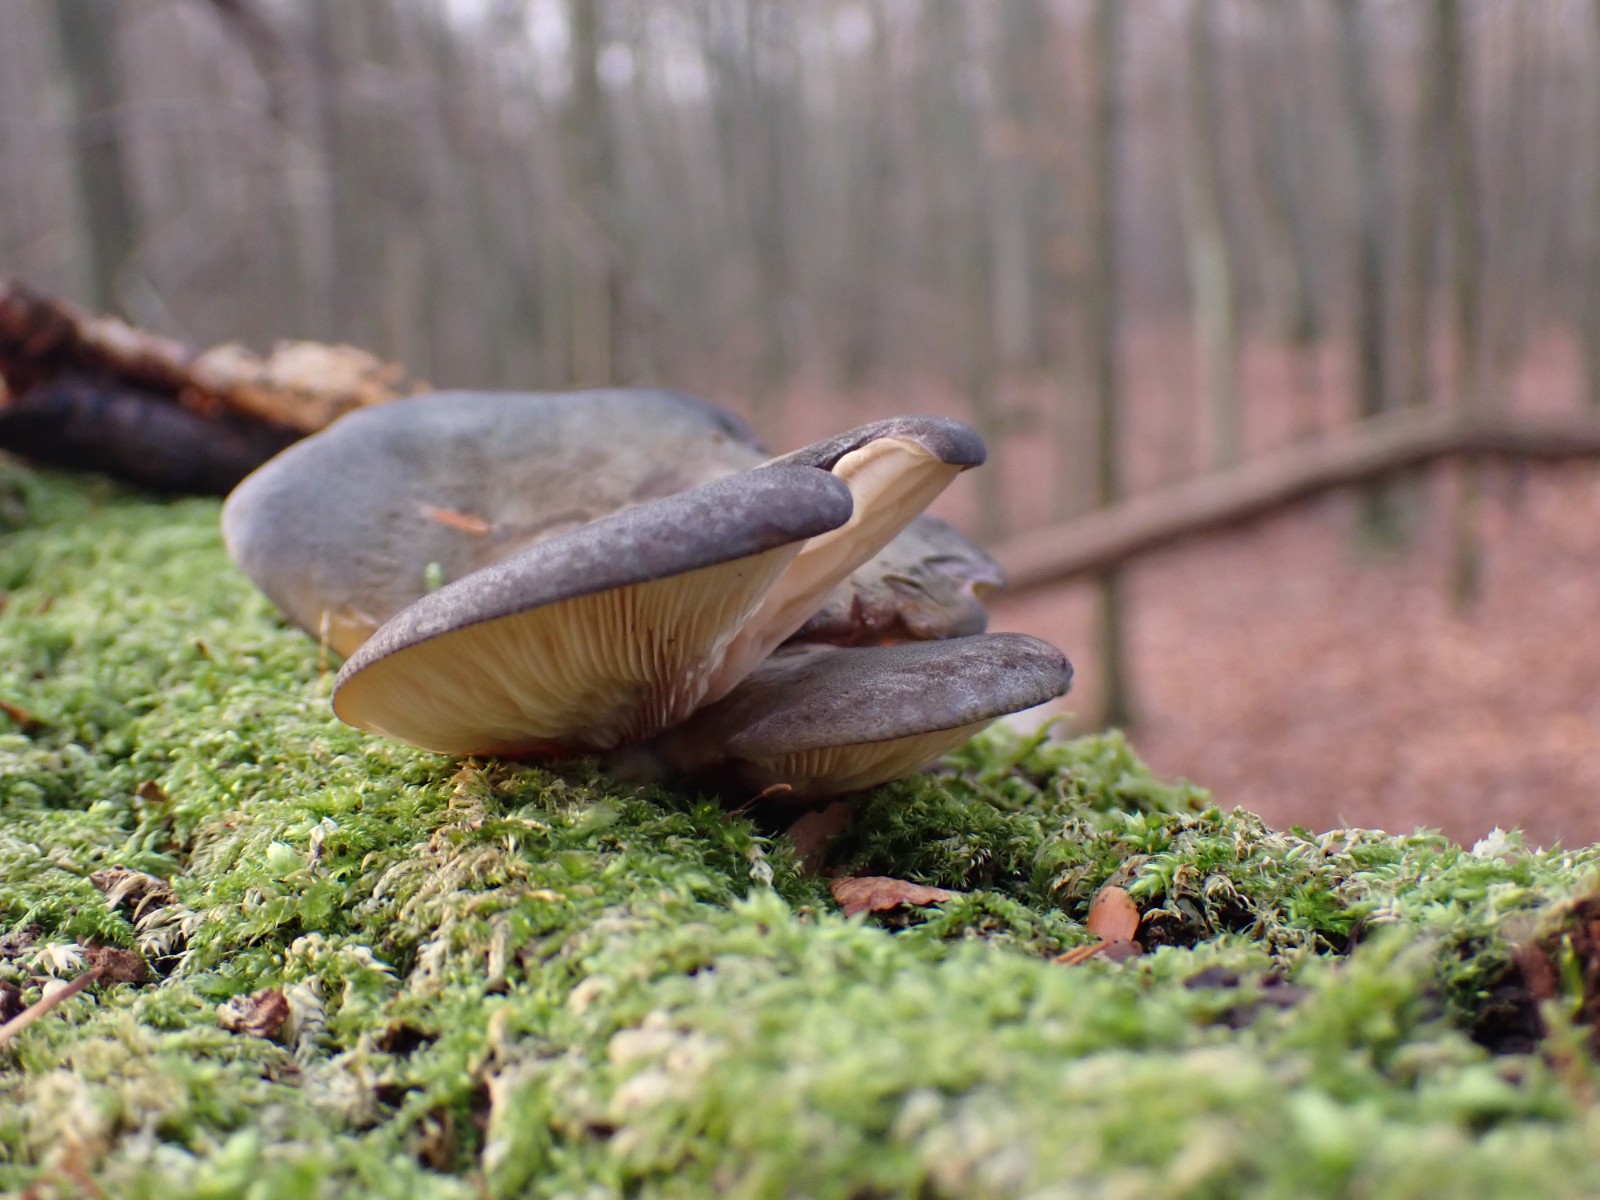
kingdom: Fungi
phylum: Basidiomycota
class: Agaricomycetes
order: Agaricales
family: Sarcomyxaceae
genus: Sarcomyxa
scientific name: Sarcomyxa serotina
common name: gummihat
